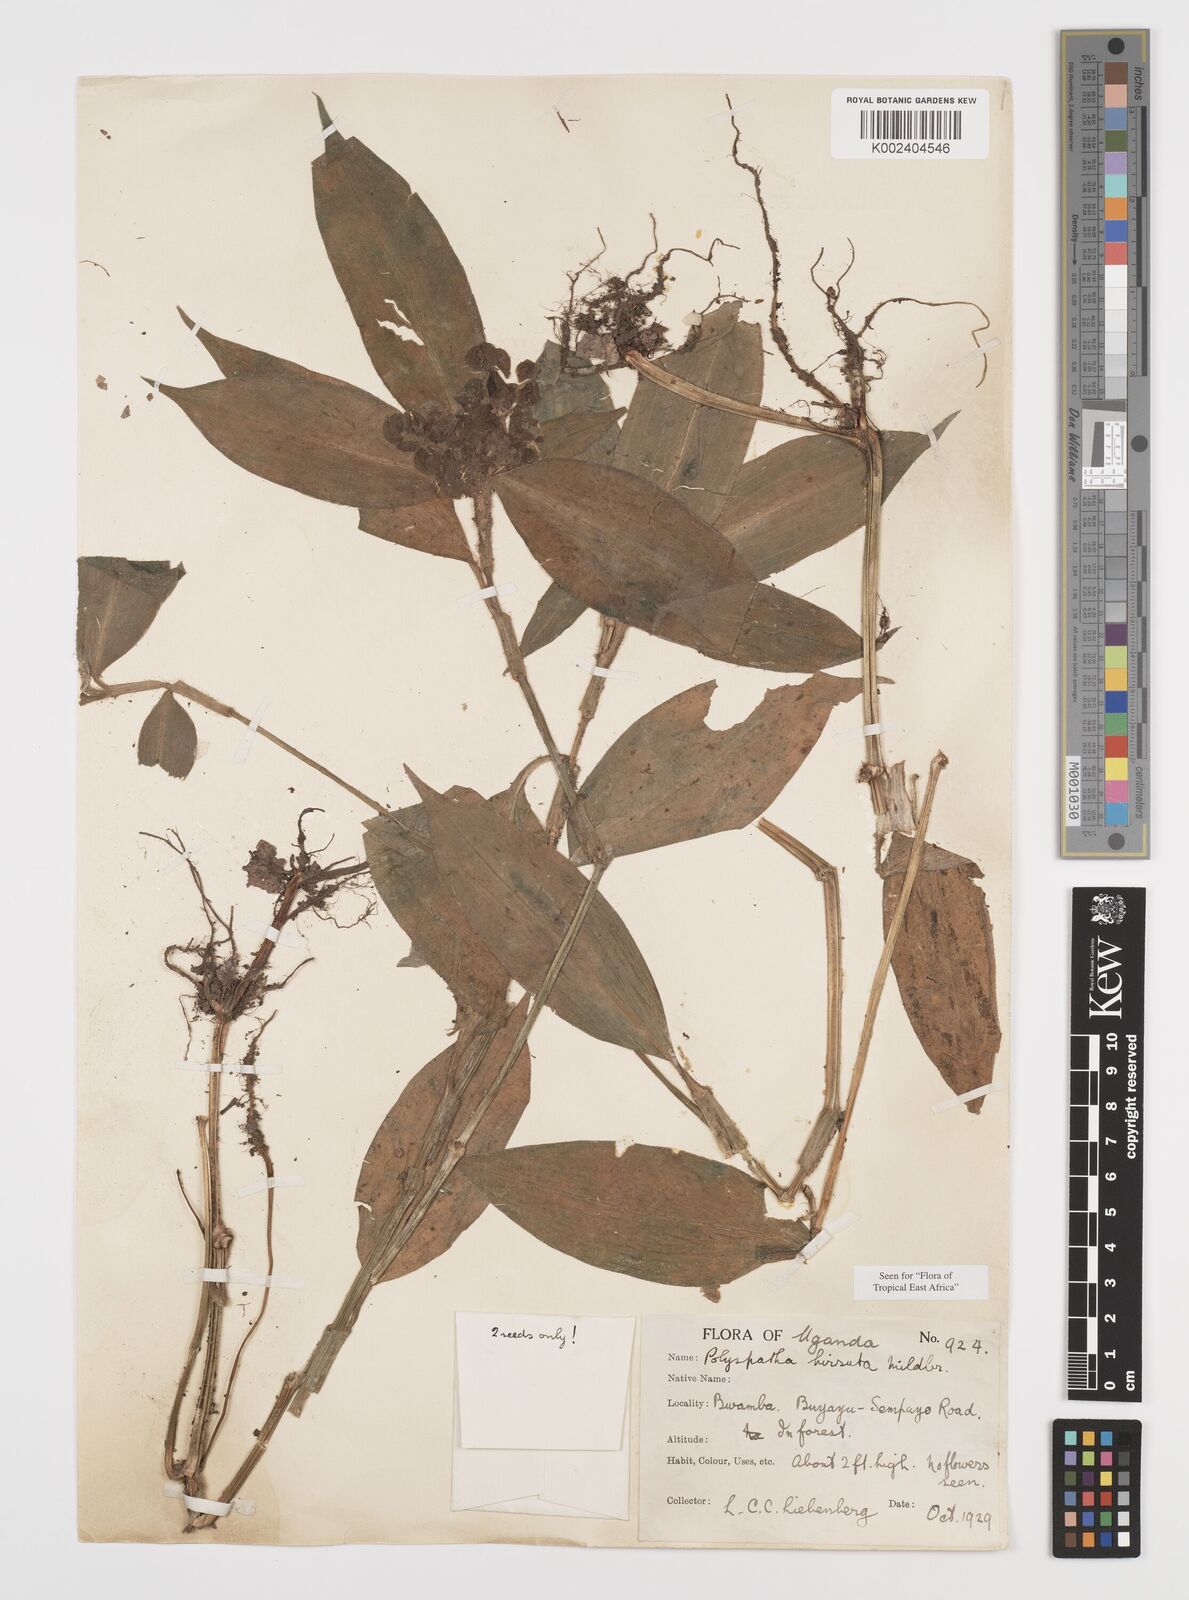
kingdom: Plantae
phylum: Tracheophyta
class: Liliopsida
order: Commelinales
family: Commelinaceae
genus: Polyspatha
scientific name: Polyspatha hirsuta
